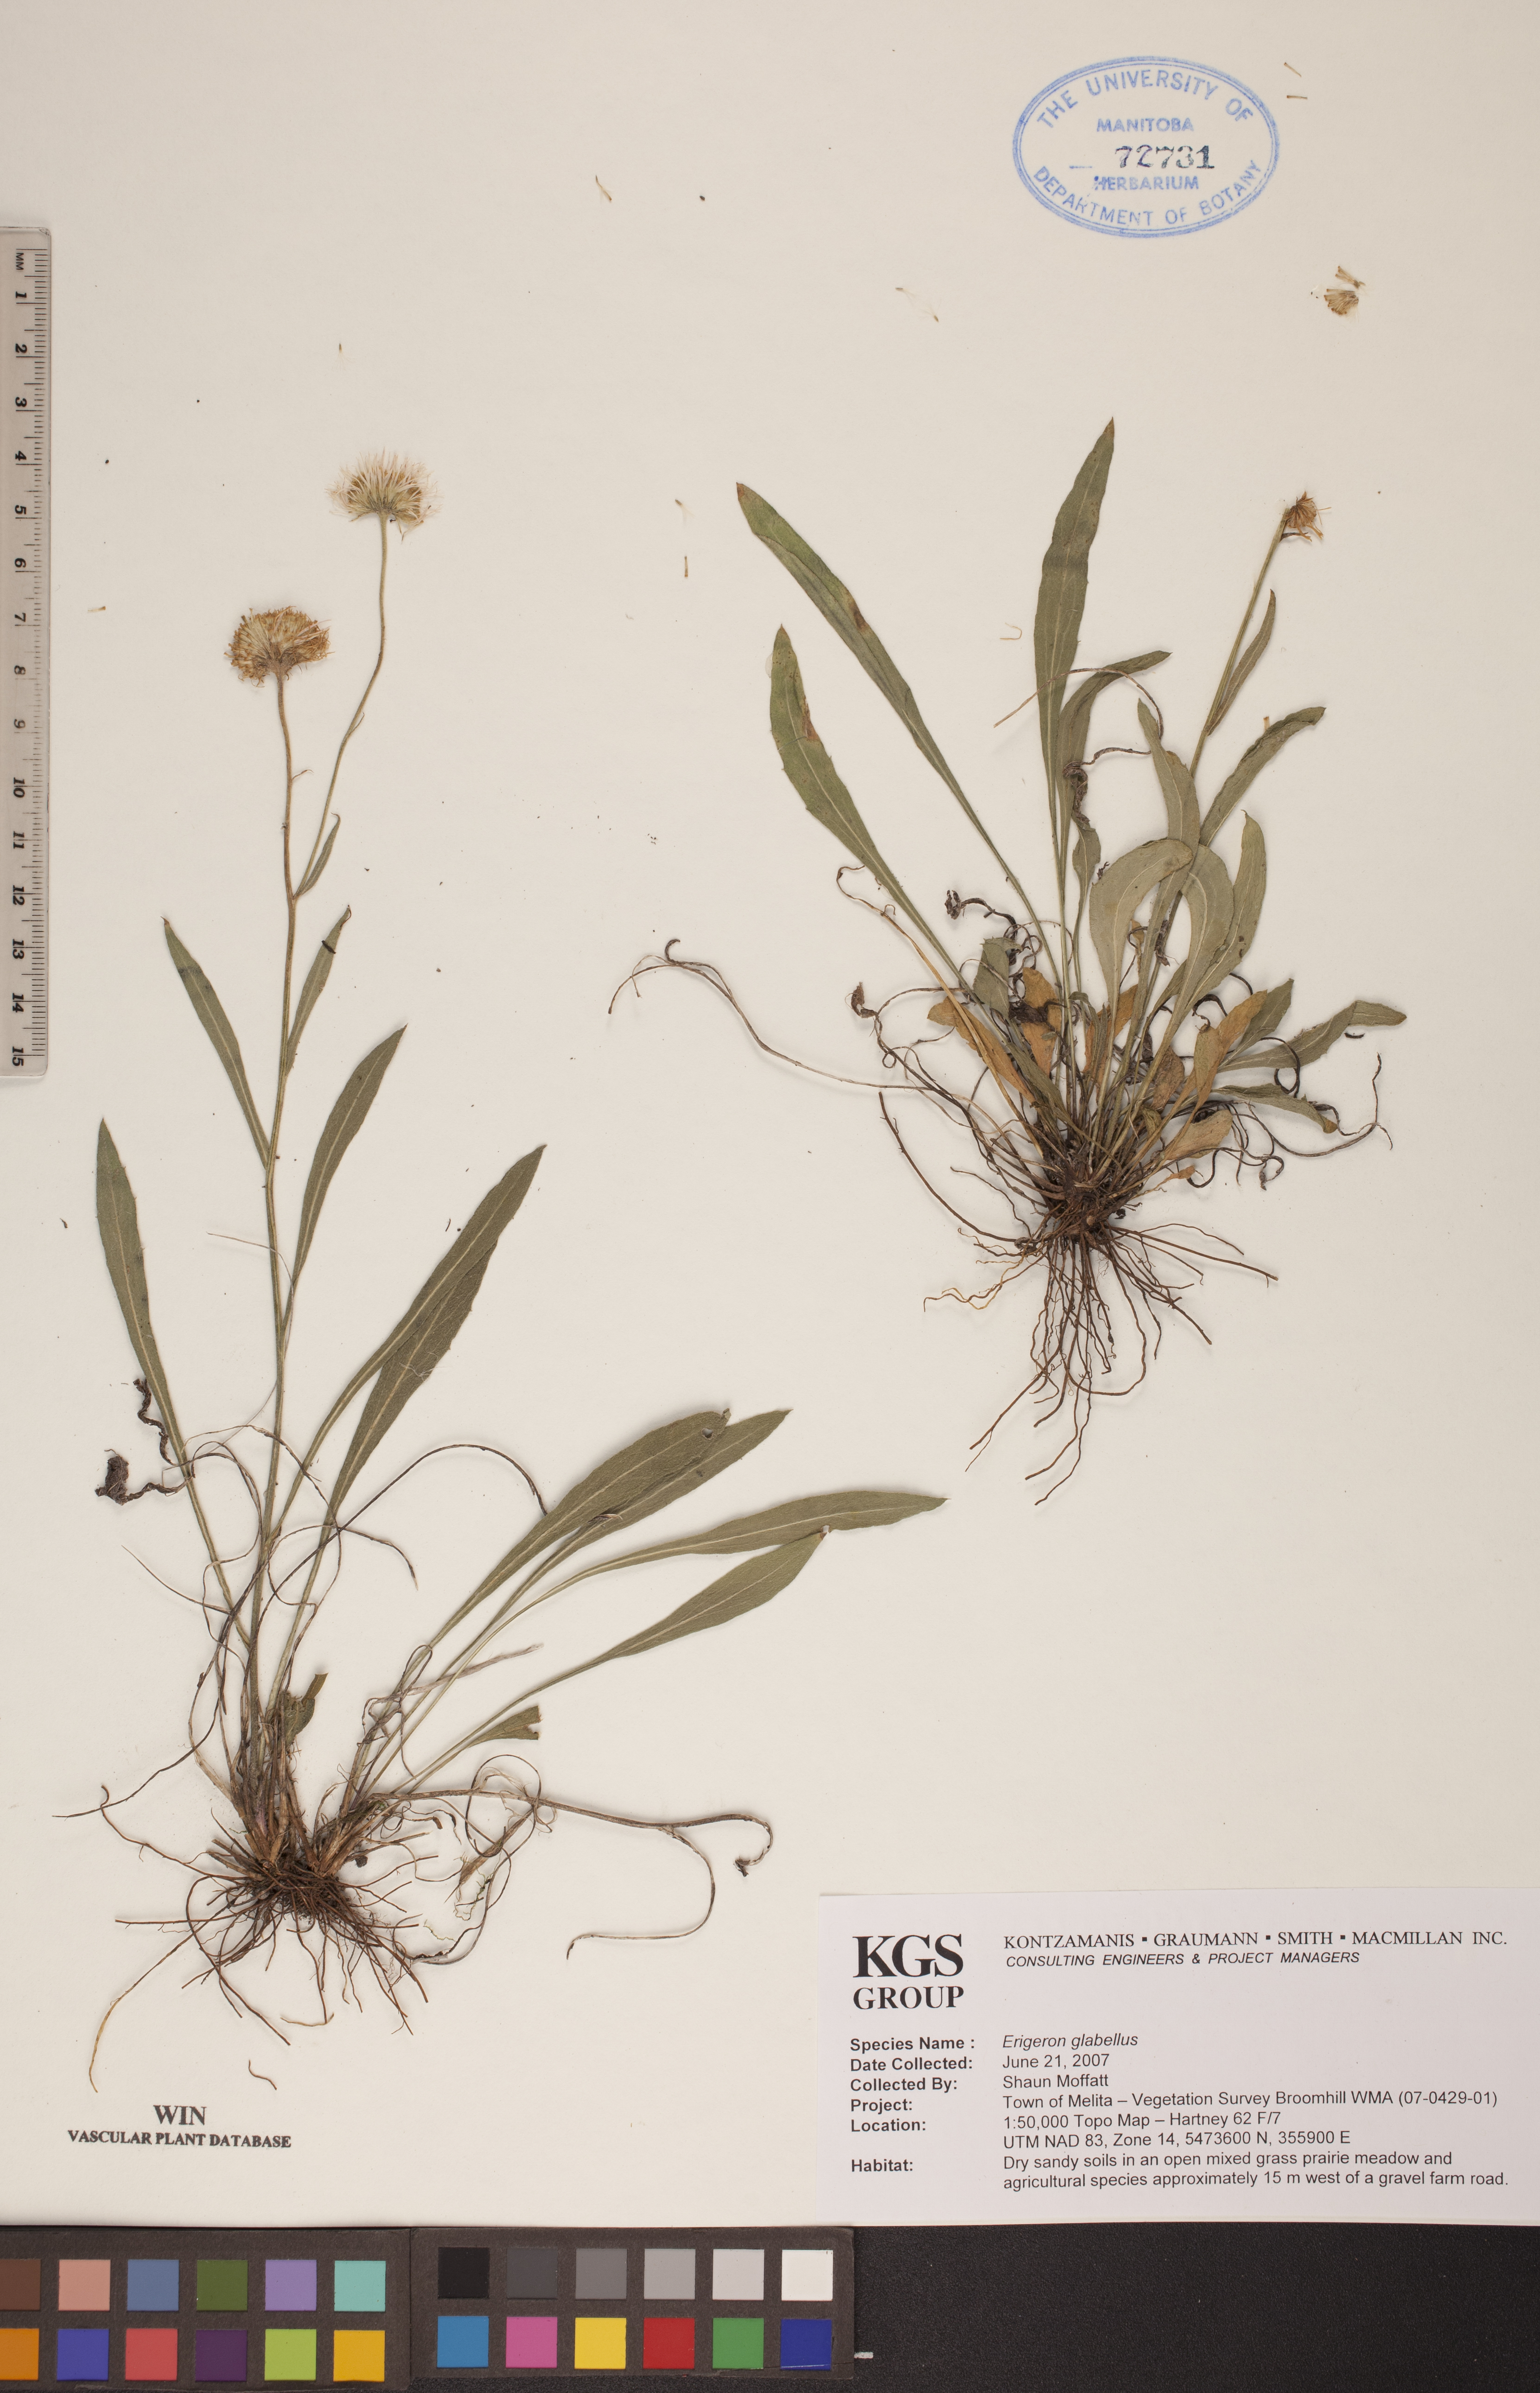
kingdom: Plantae
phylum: Tracheophyta
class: Magnoliopsida
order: Asterales
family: Asteraceae
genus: Erigeron
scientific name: Erigeron glabellus
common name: Smooth fleabane
